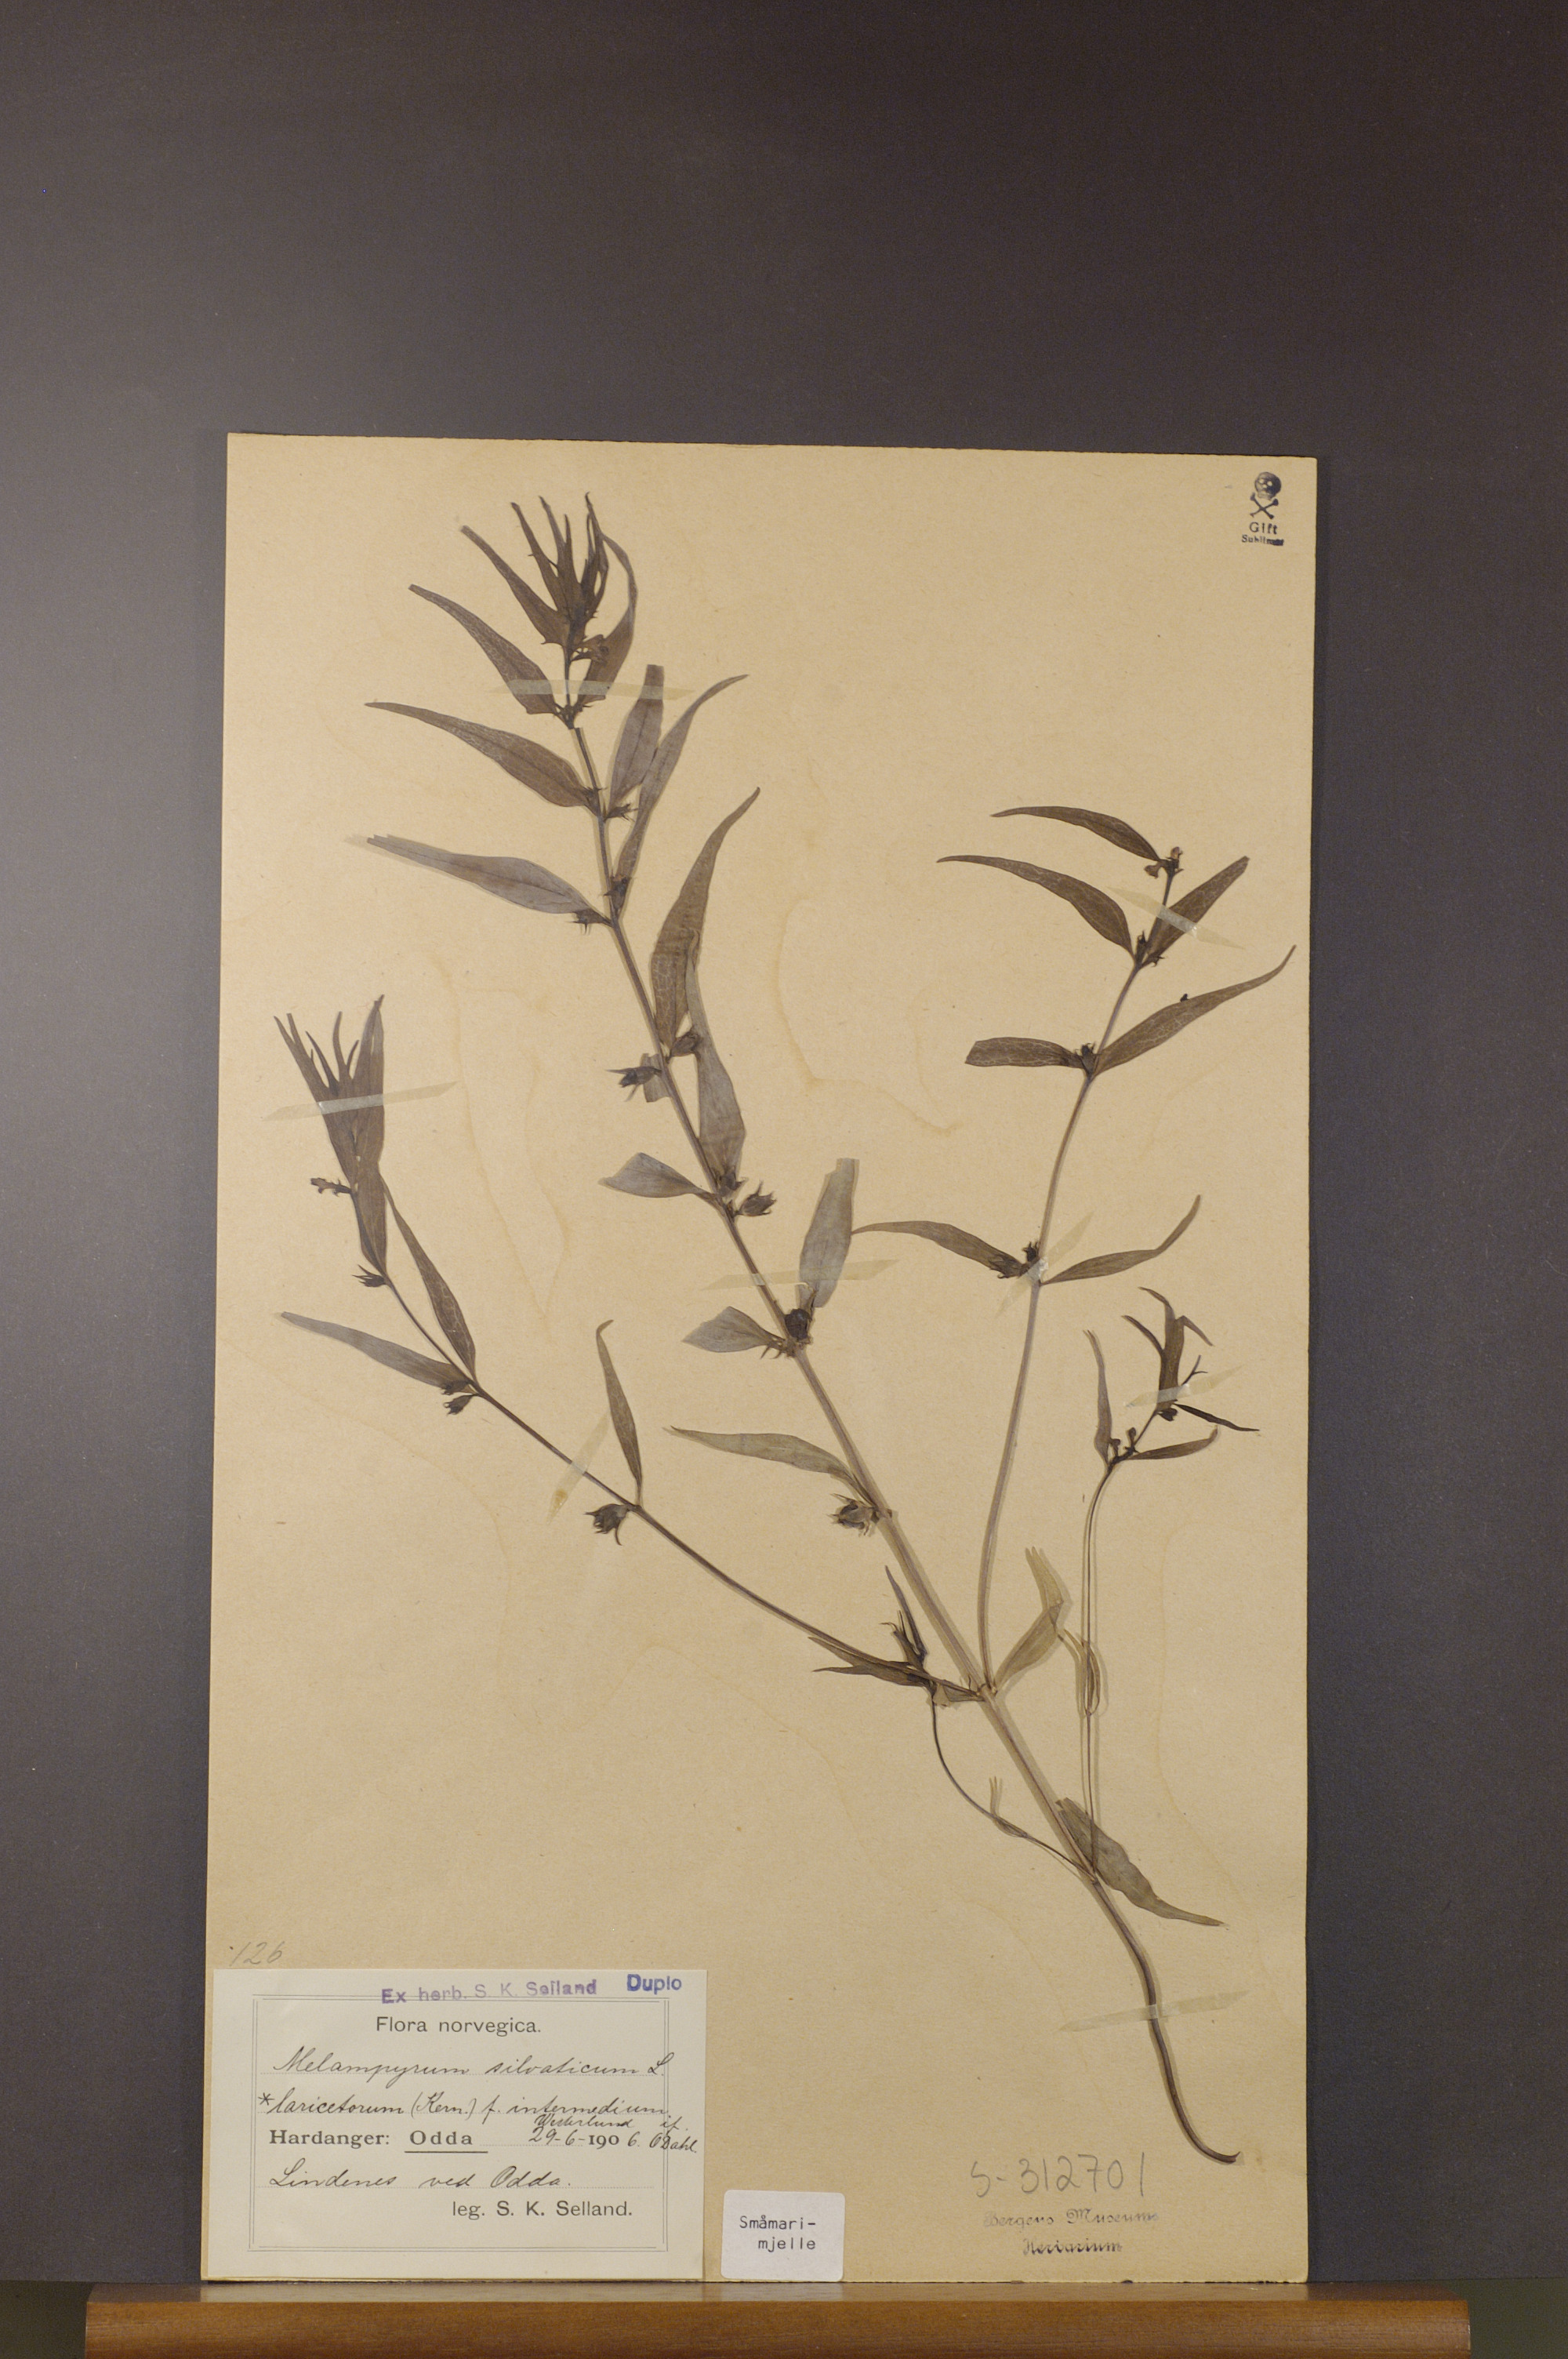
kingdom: Plantae
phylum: Tracheophyta
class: Magnoliopsida
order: Lamiales
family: Orobanchaceae
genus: Melampyrum
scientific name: Melampyrum sylvaticum
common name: Small cow-wheat
